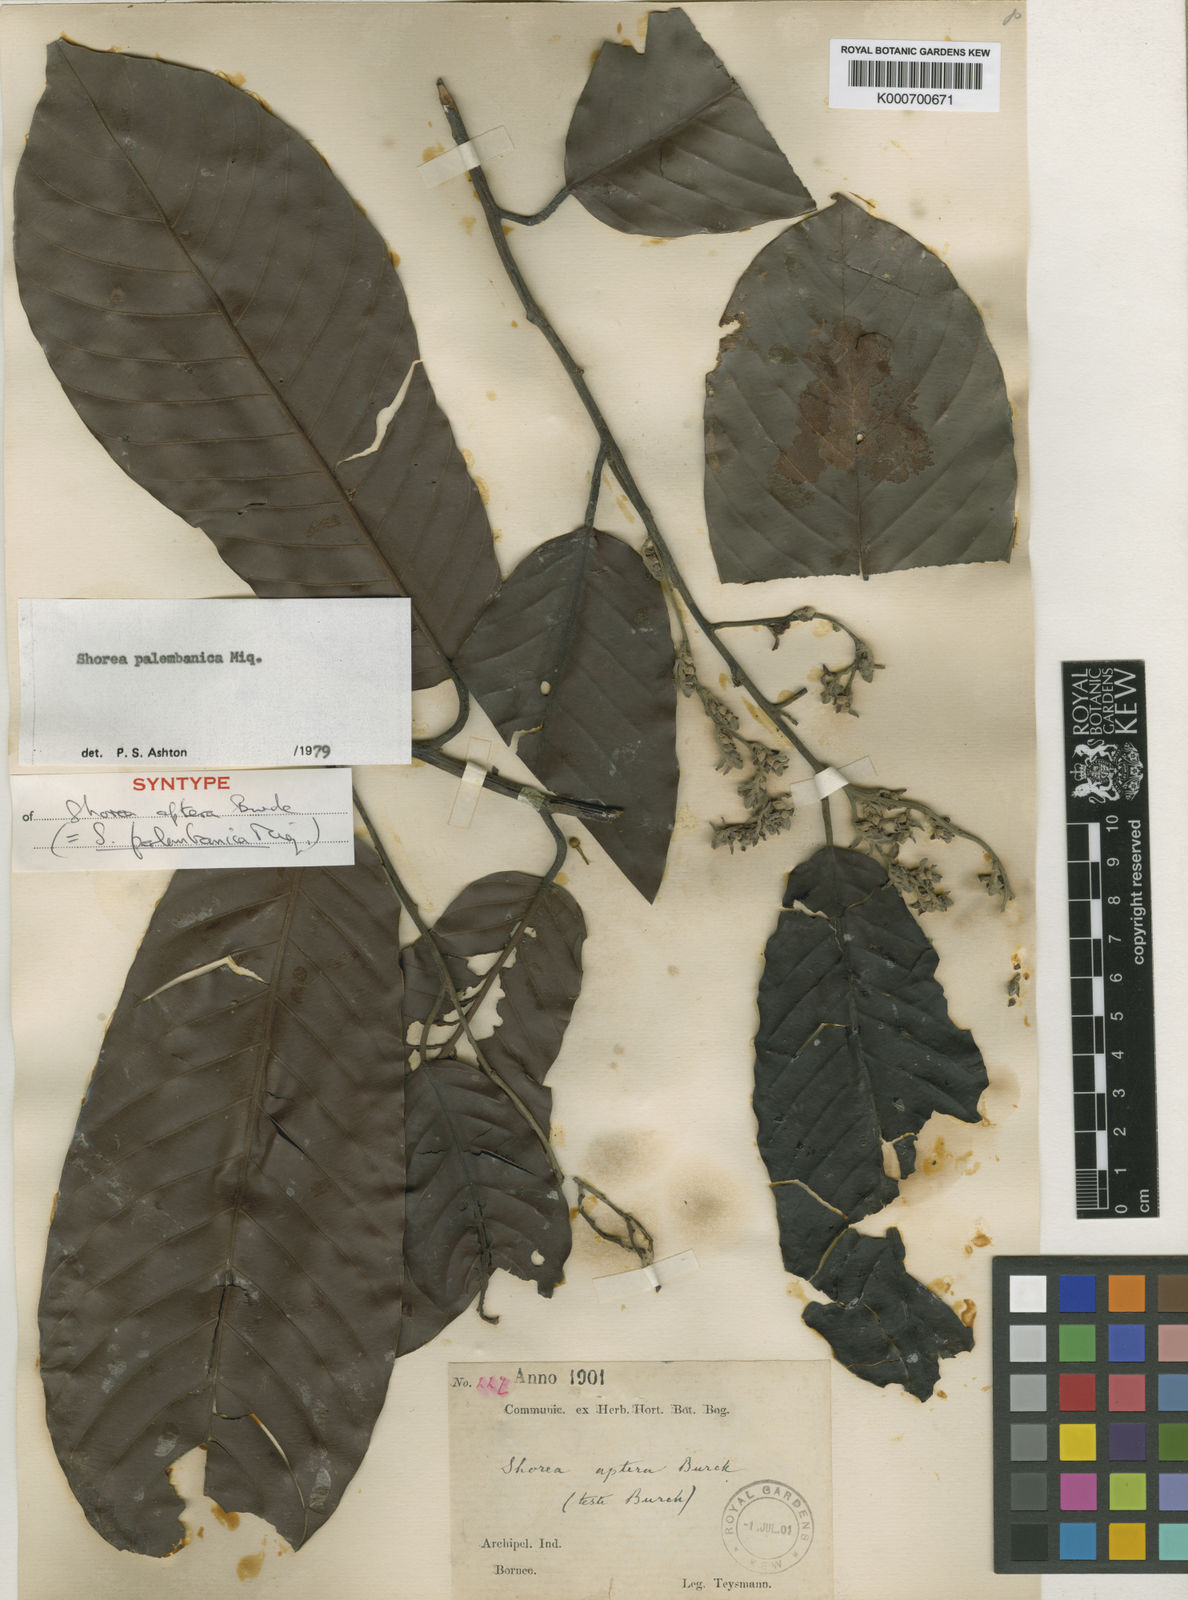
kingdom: Plantae
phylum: Tracheophyta
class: Magnoliopsida
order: Malvales
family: Dipterocarpaceae
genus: Shorea
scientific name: Shorea palembanica
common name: Light red meranti
